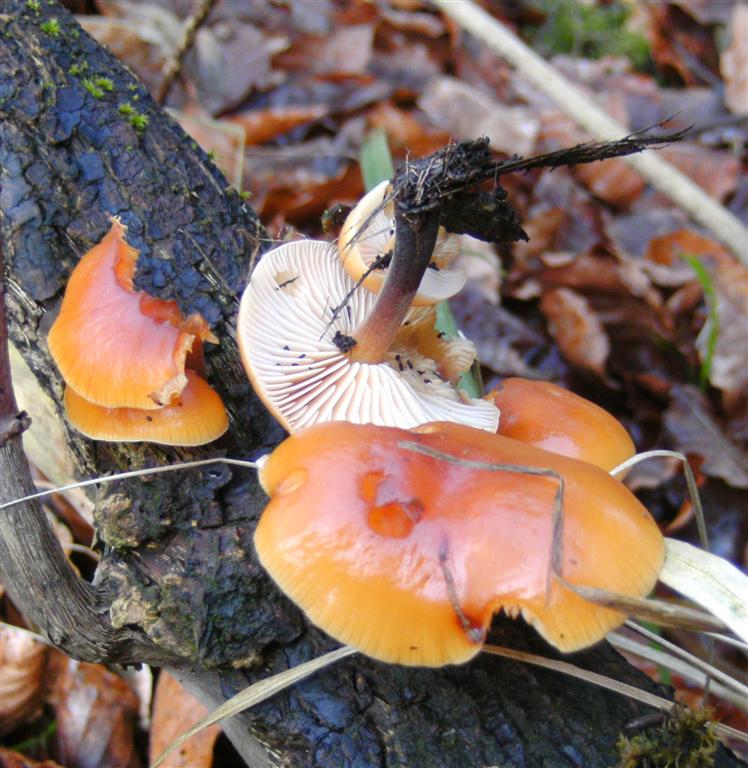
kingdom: Fungi
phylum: Basidiomycota
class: Agaricomycetes
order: Agaricales
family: Physalacriaceae
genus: Flammulina
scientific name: Flammulina velutipes
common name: gul fløjlsfod
